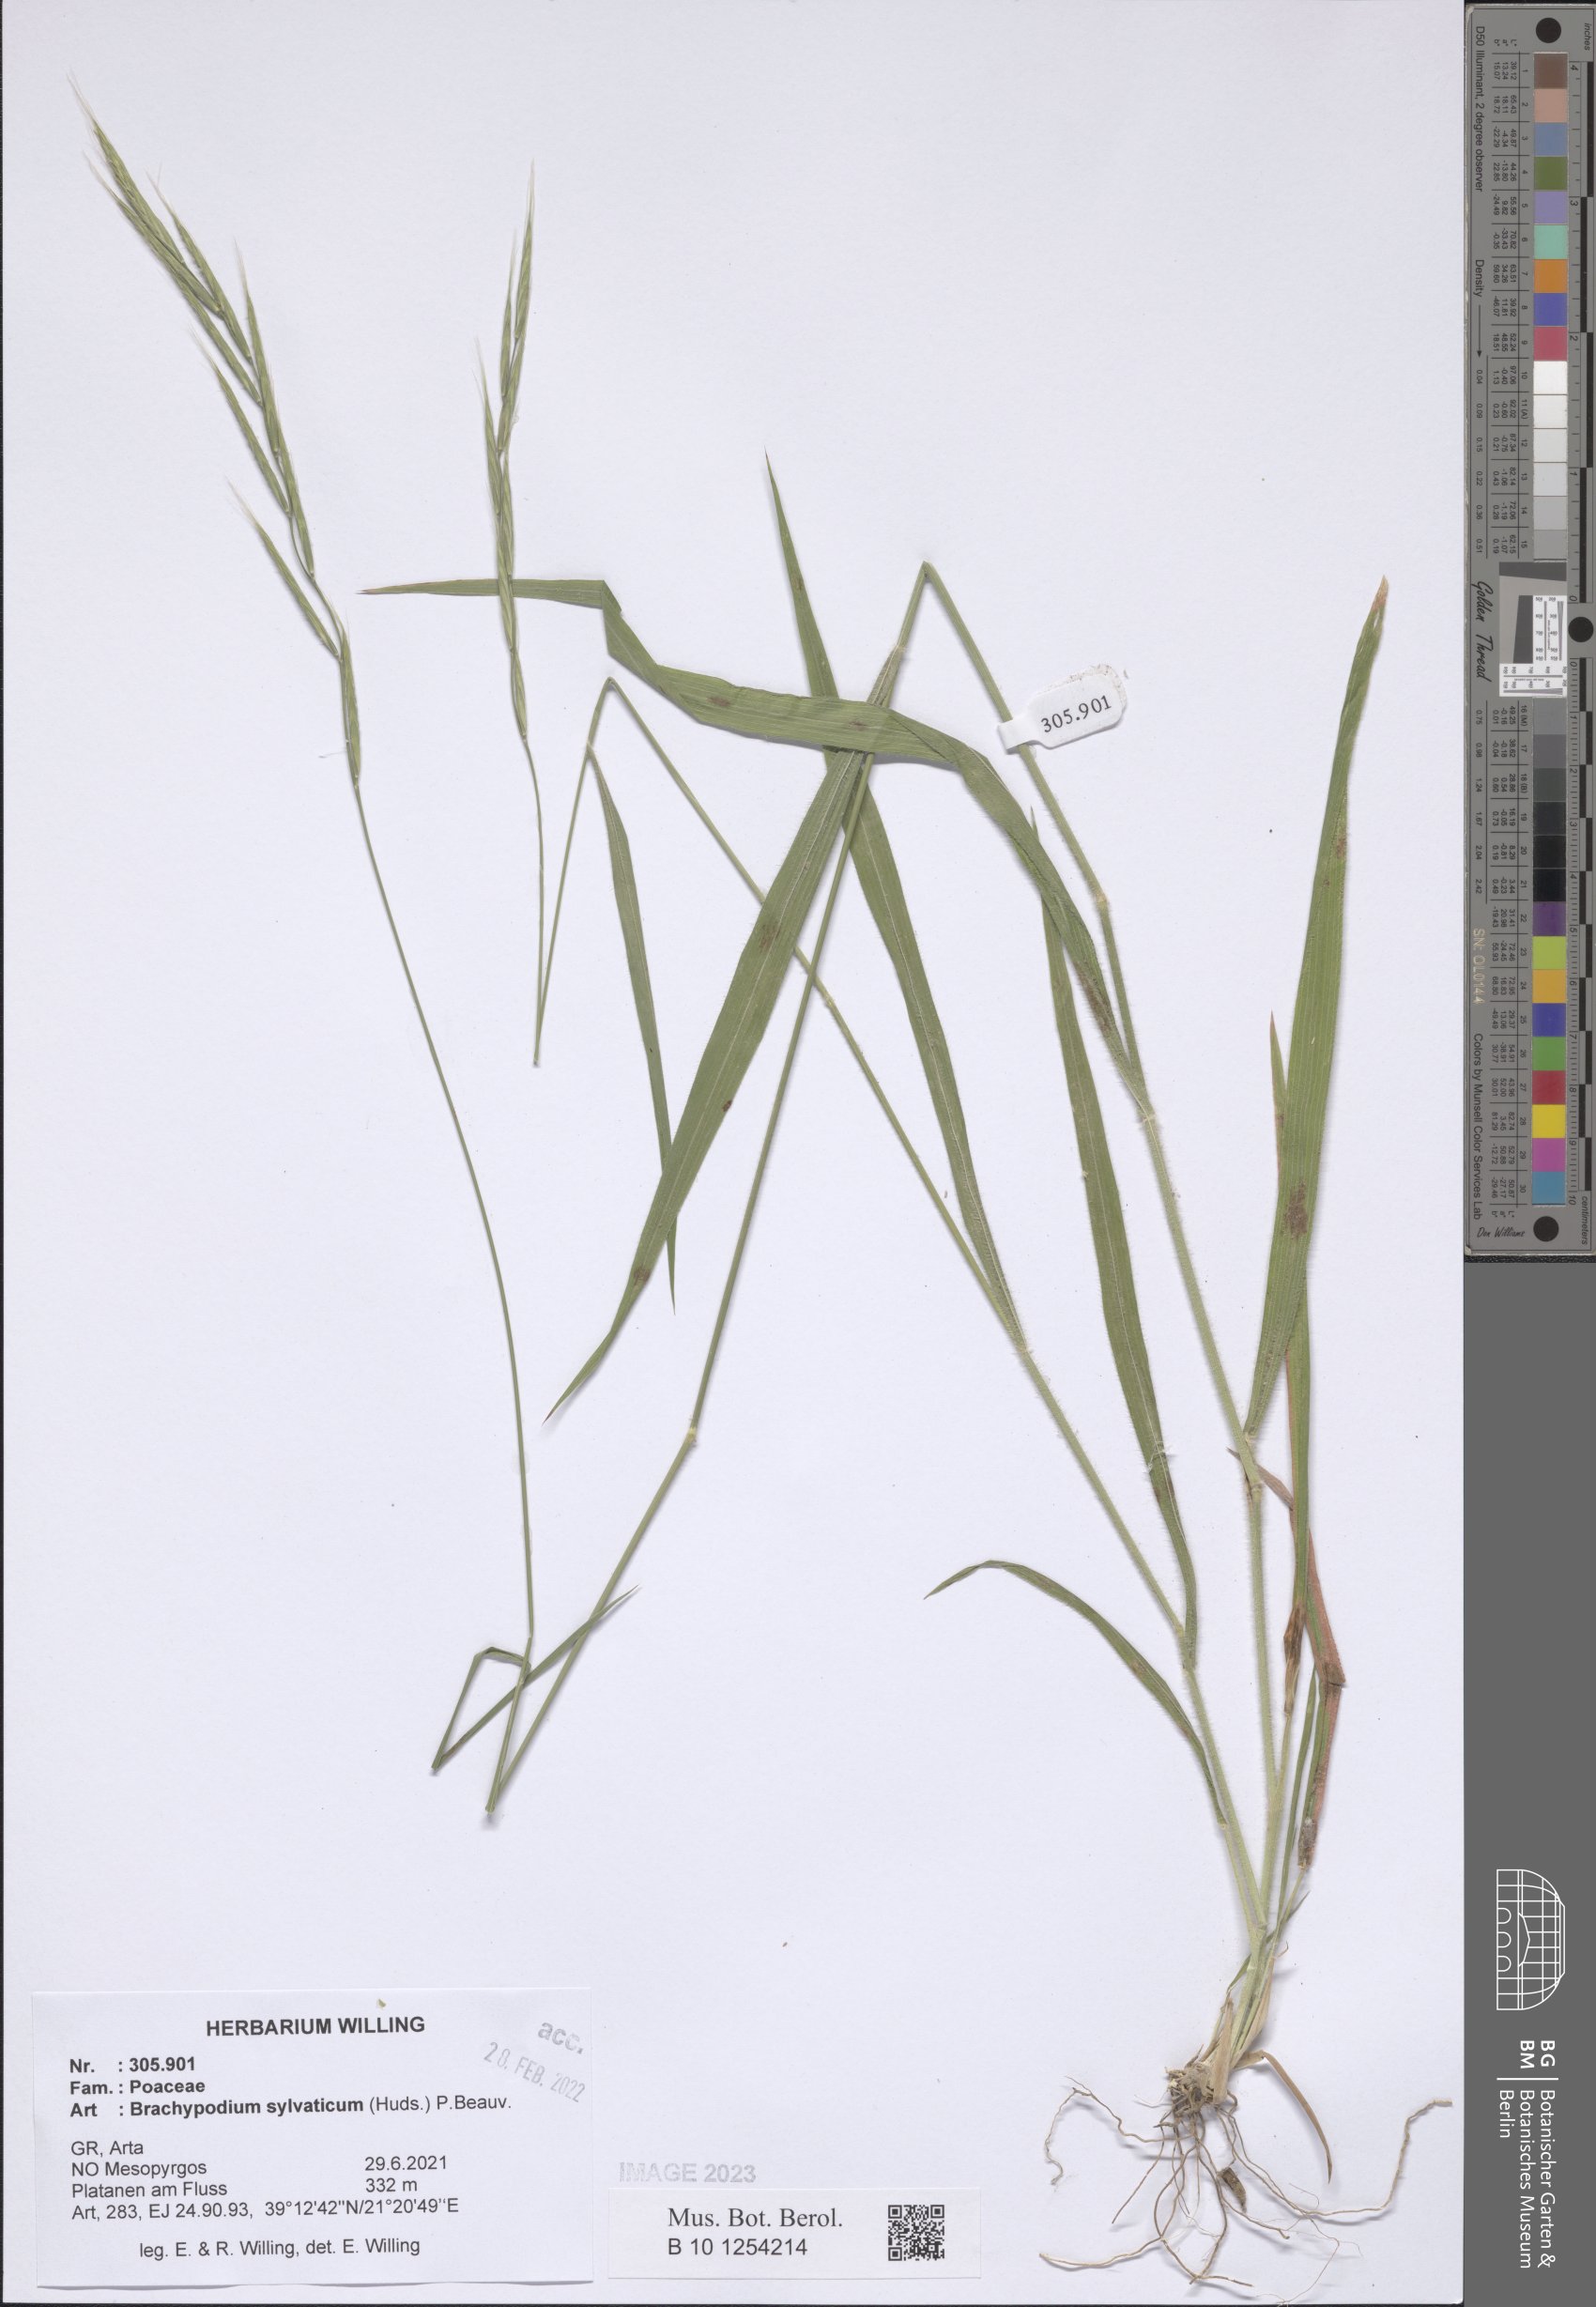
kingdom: Plantae
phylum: Tracheophyta
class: Liliopsida
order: Poales
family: Poaceae
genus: Brachypodium
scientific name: Brachypodium sylvaticum
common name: False-brome
